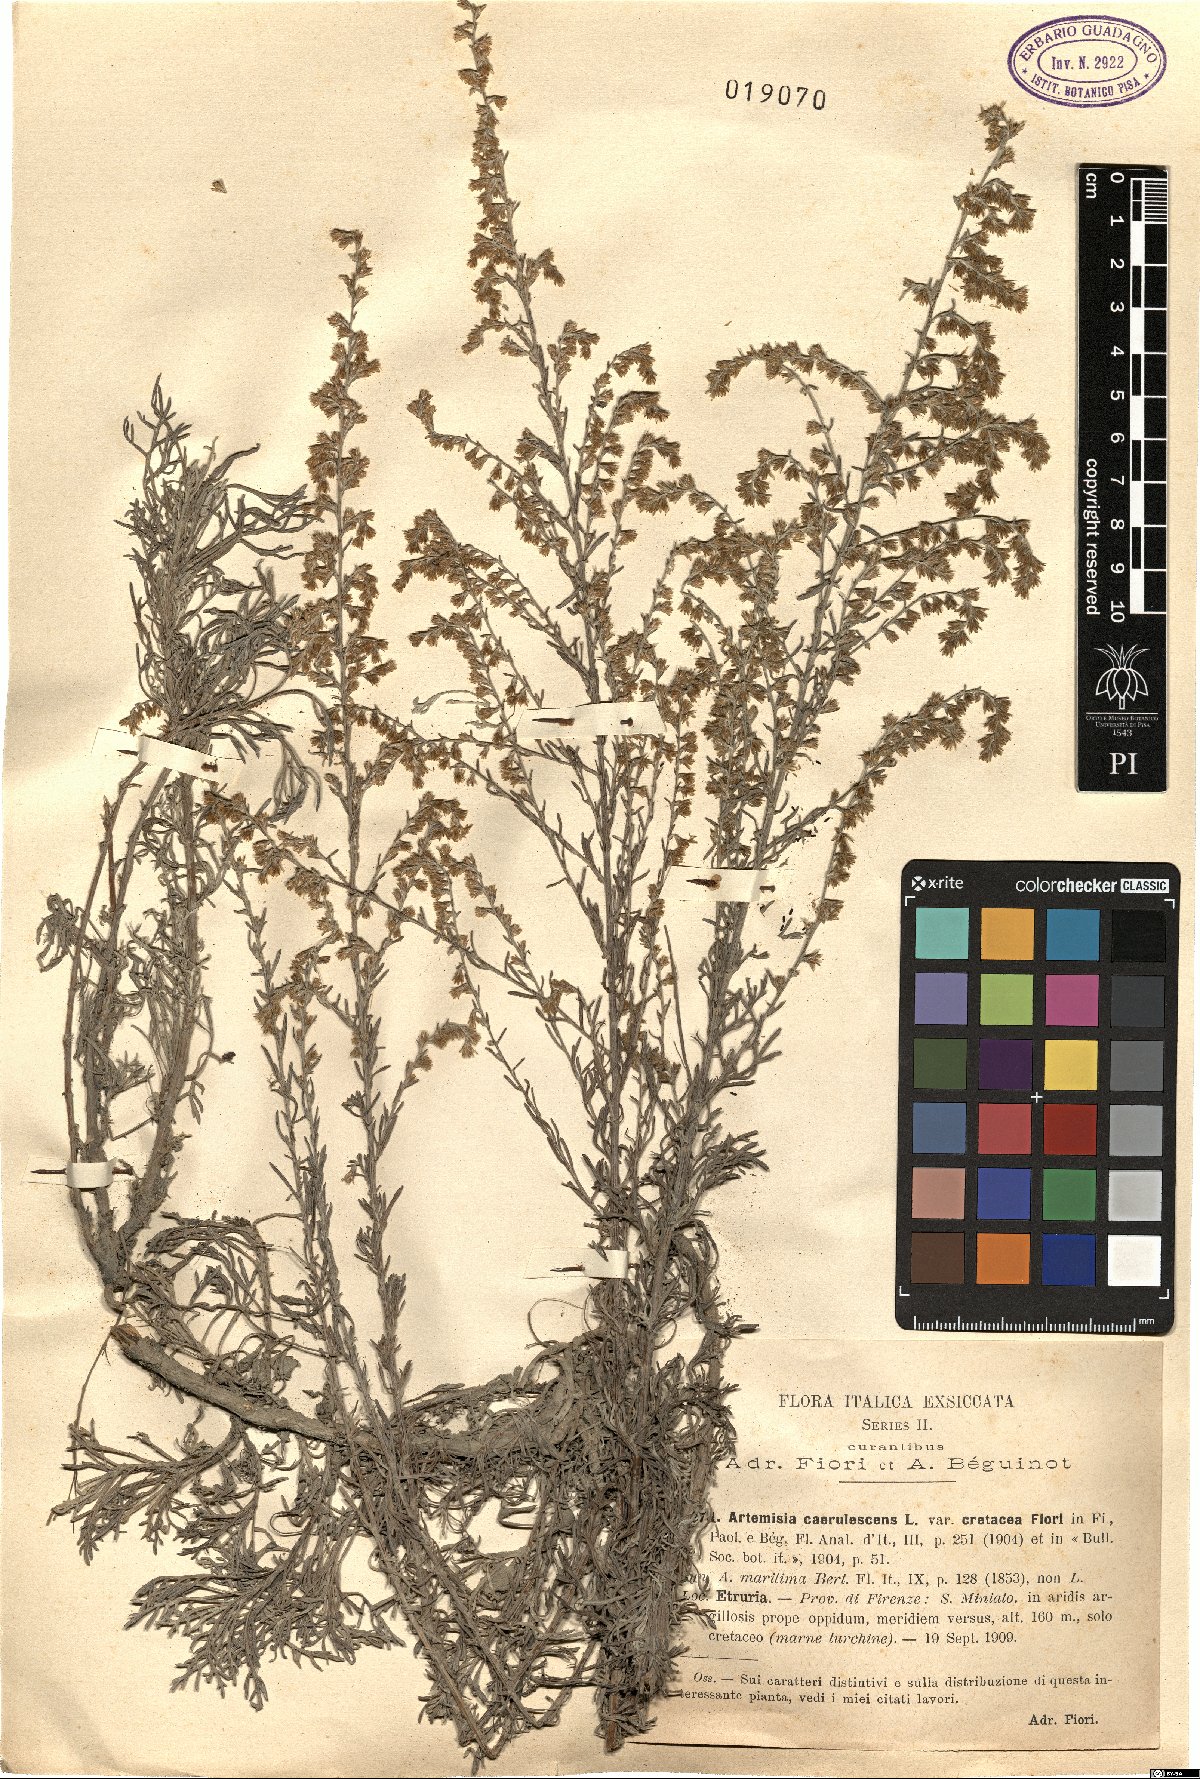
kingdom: Plantae
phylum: Tracheophyta
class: Magnoliopsida
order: Asterales
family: Asteraceae
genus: Artemisia
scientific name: Artemisia caerulescens
